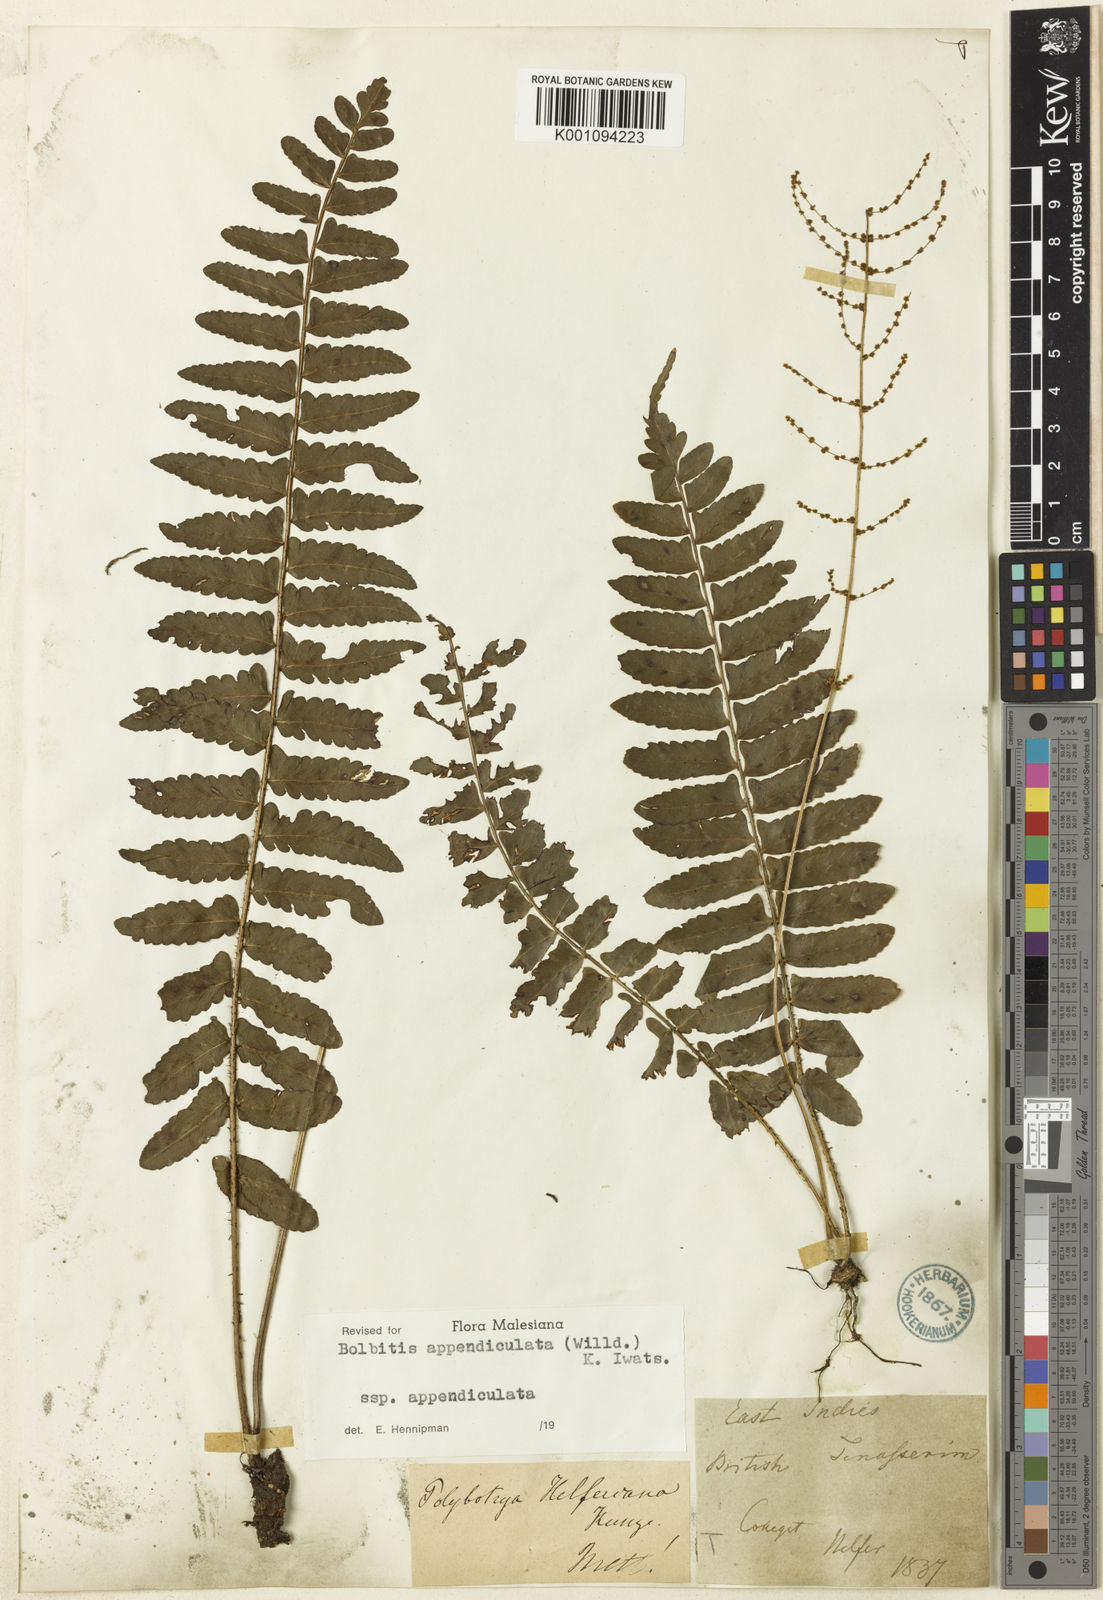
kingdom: Plantae
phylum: Tracheophyta
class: Polypodiopsida
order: Polypodiales
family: Dryopteridaceae
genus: Bolbitis
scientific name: Bolbitis appendiculata
